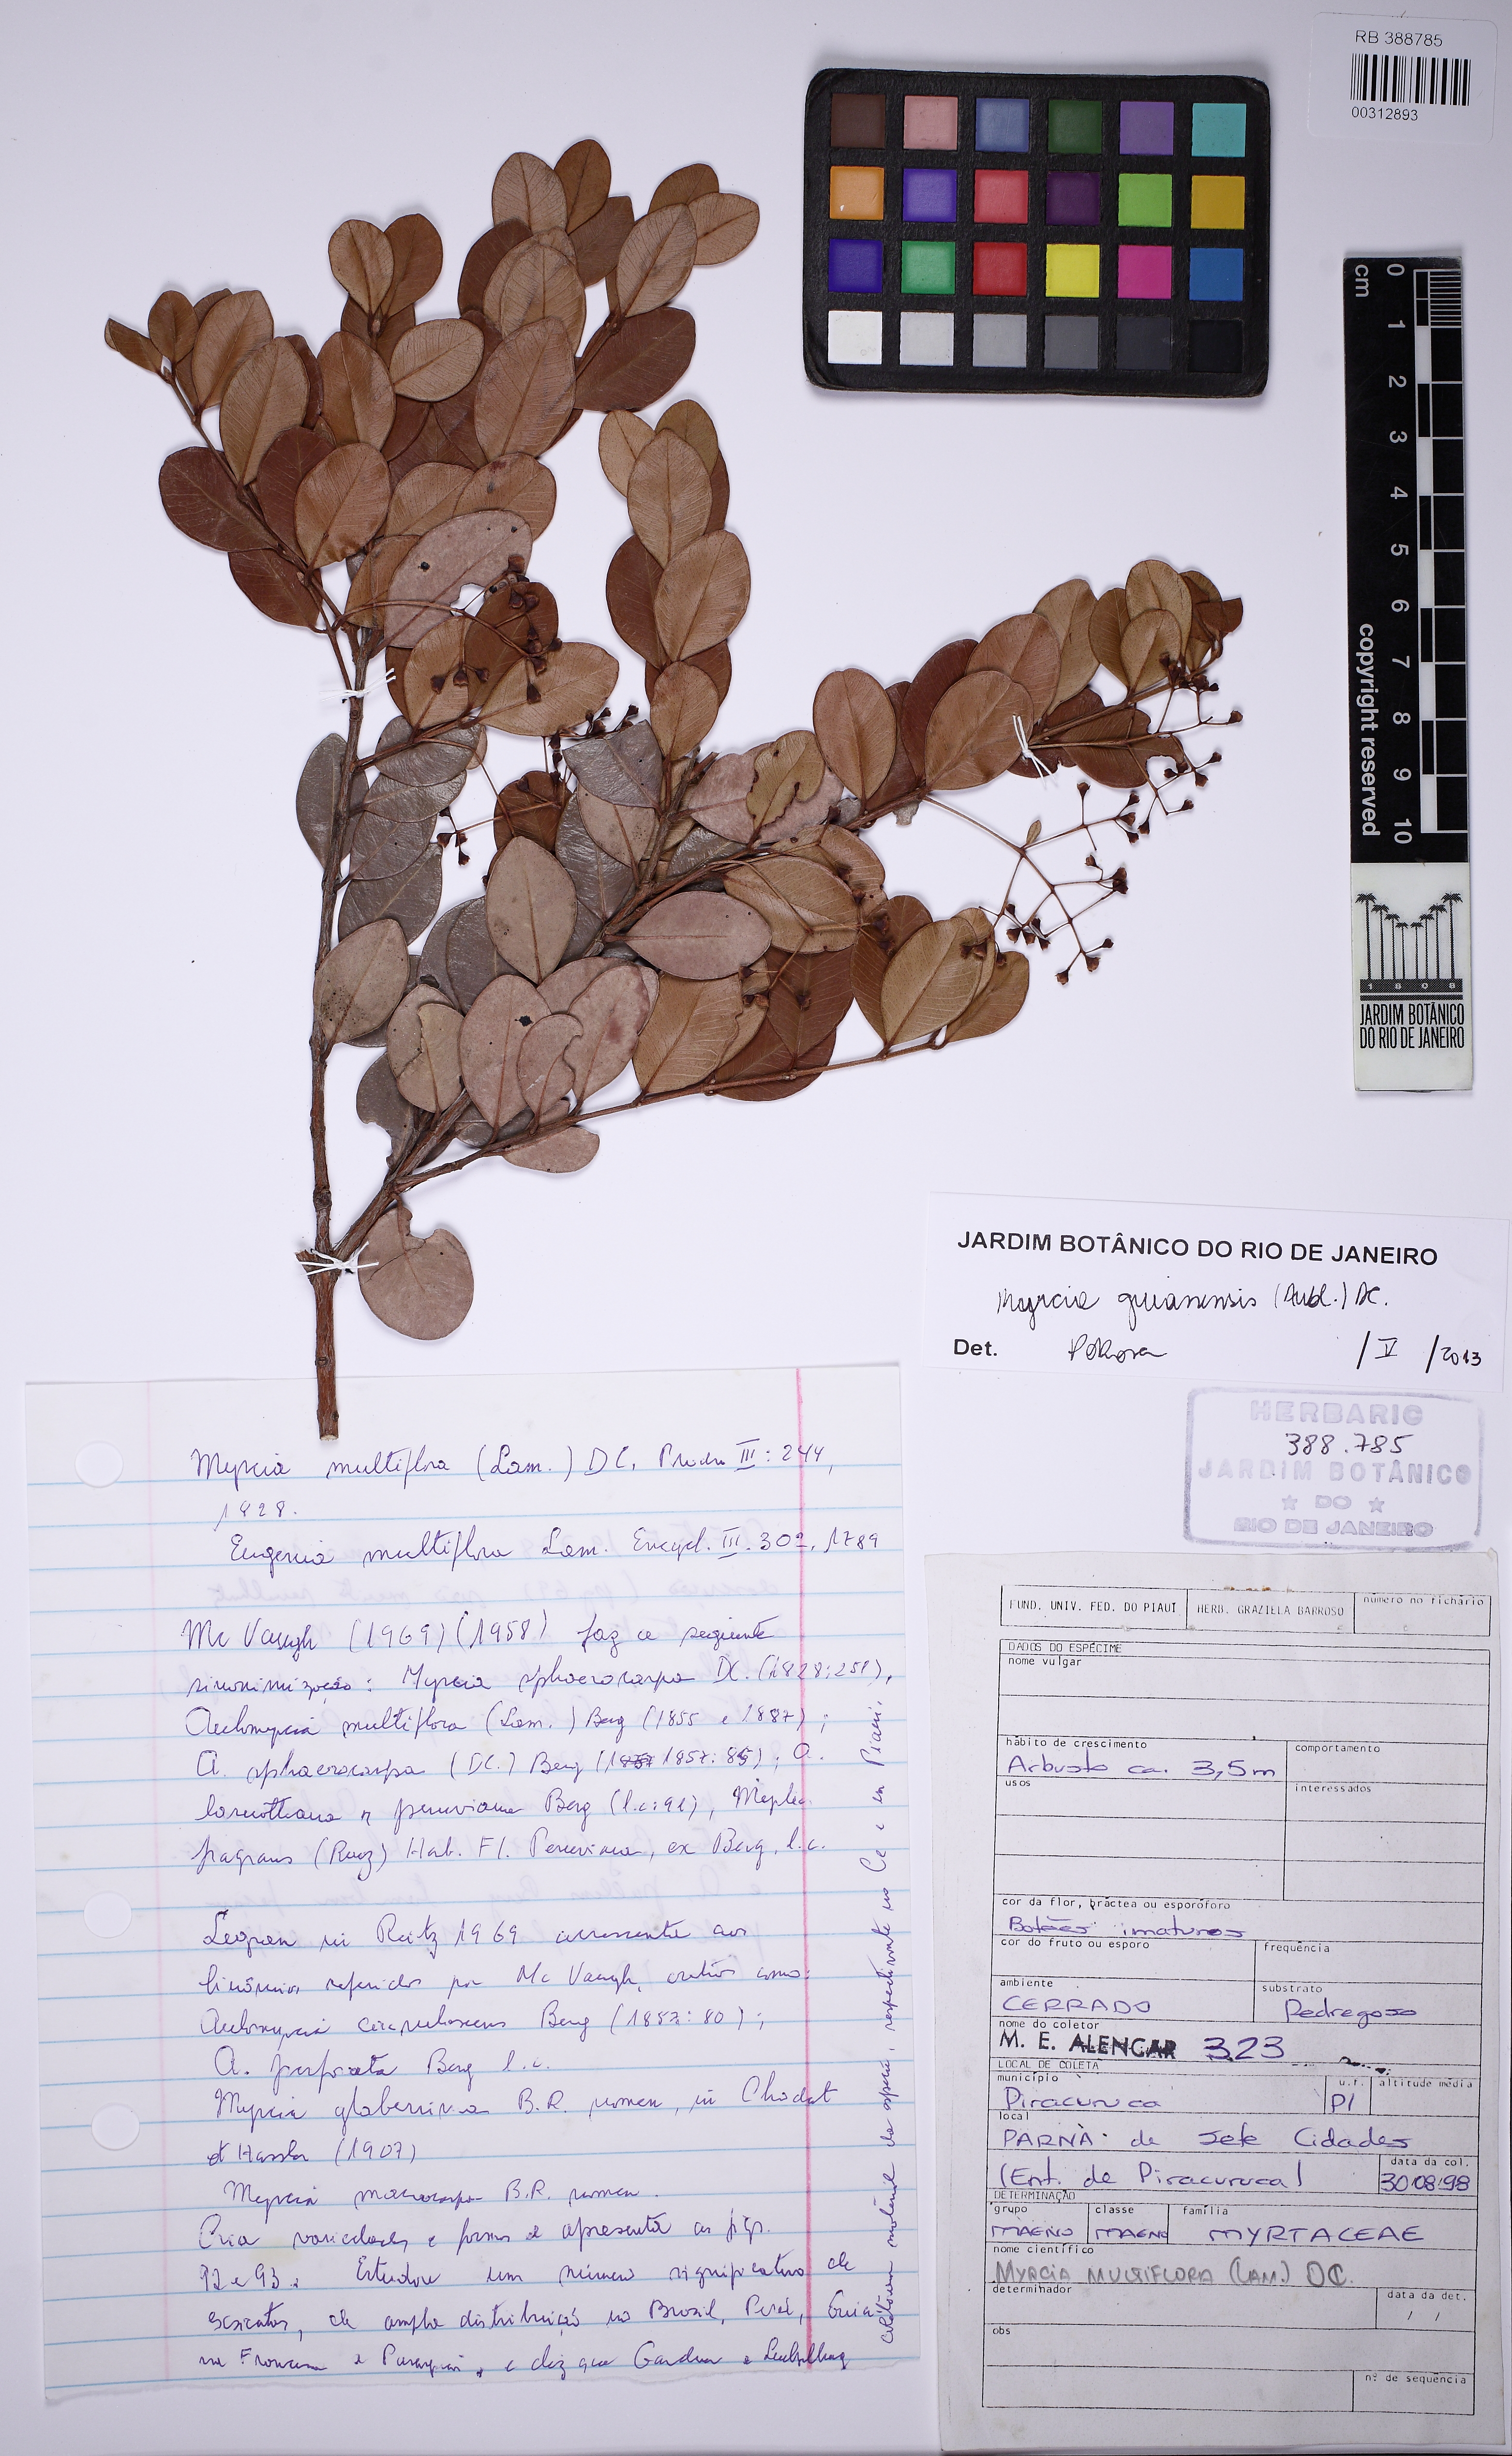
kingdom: Plantae
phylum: Tracheophyta
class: Magnoliopsida
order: Myrtales
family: Myrtaceae
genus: Myrcia
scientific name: Myrcia guianensis
